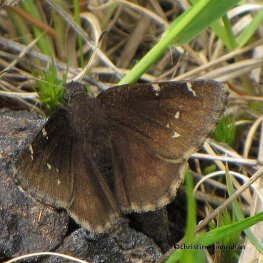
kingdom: Animalia
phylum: Arthropoda
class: Insecta
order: Lepidoptera
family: Hesperiidae
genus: Autochton
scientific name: Autochton
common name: Northern Cloudywing
